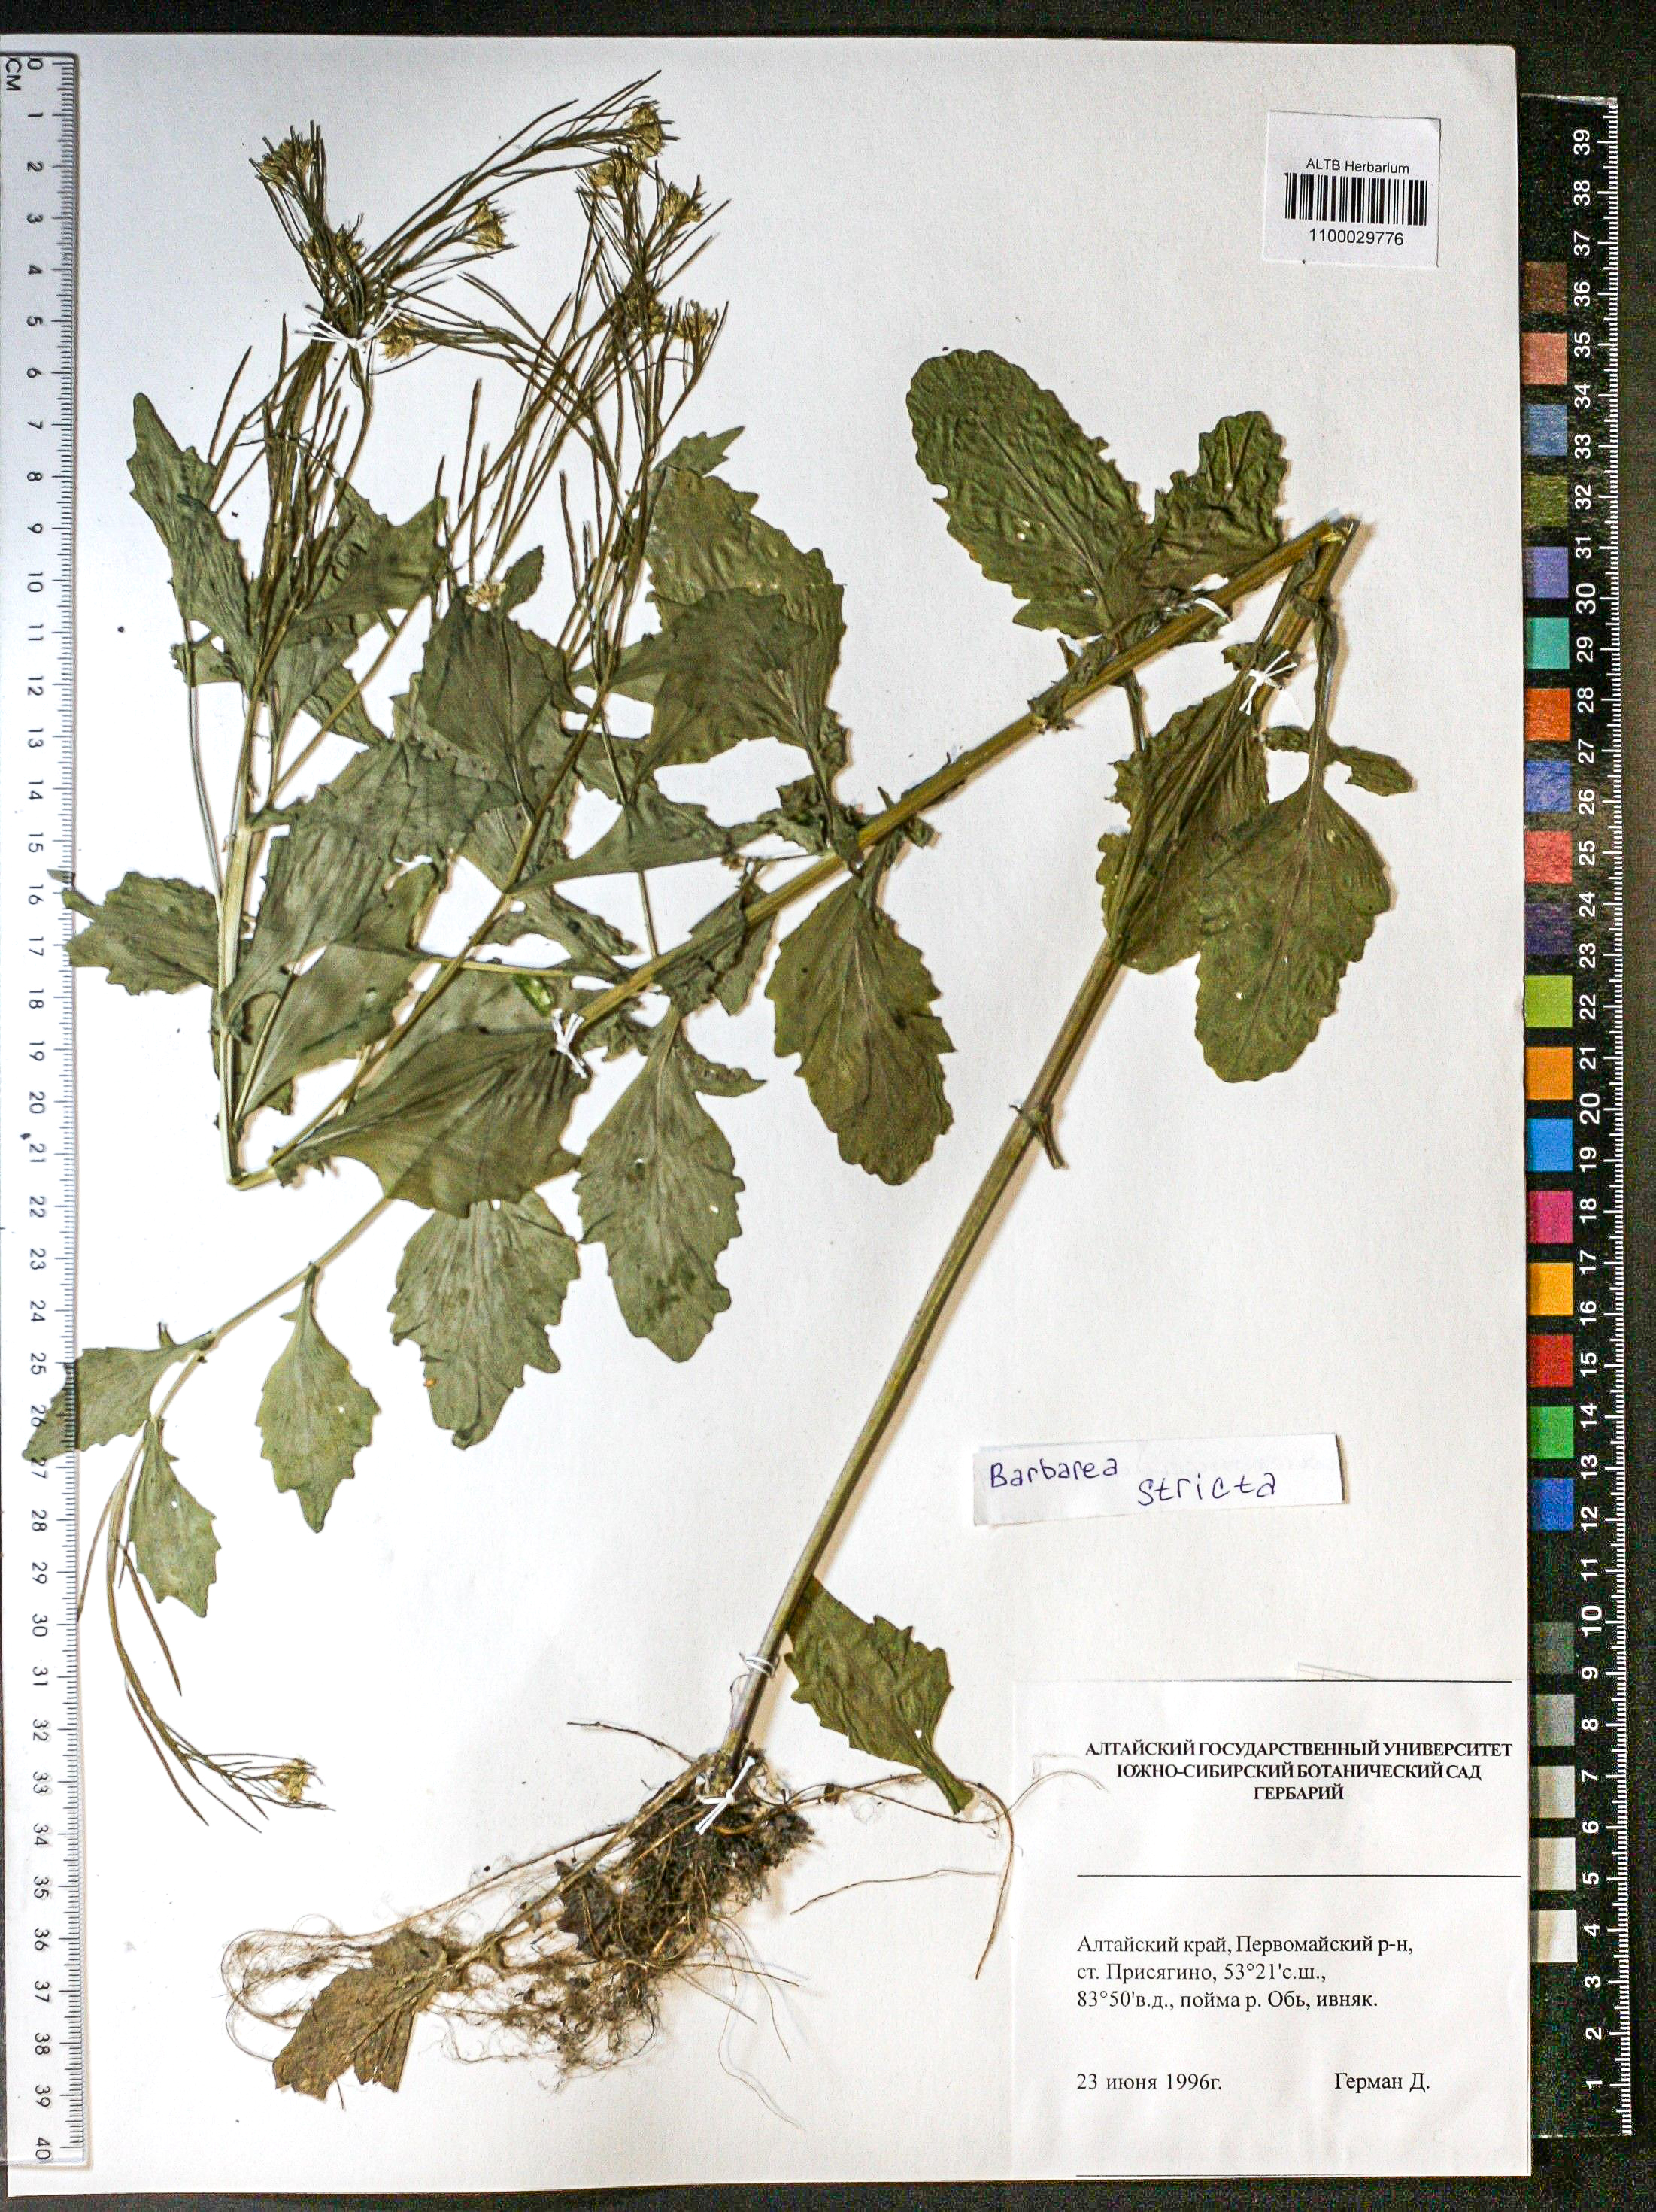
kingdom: Plantae
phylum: Tracheophyta
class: Magnoliopsida
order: Brassicales
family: Brassicaceae
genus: Barbarea
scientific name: Barbarea vulgaris
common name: Cressy-greens
